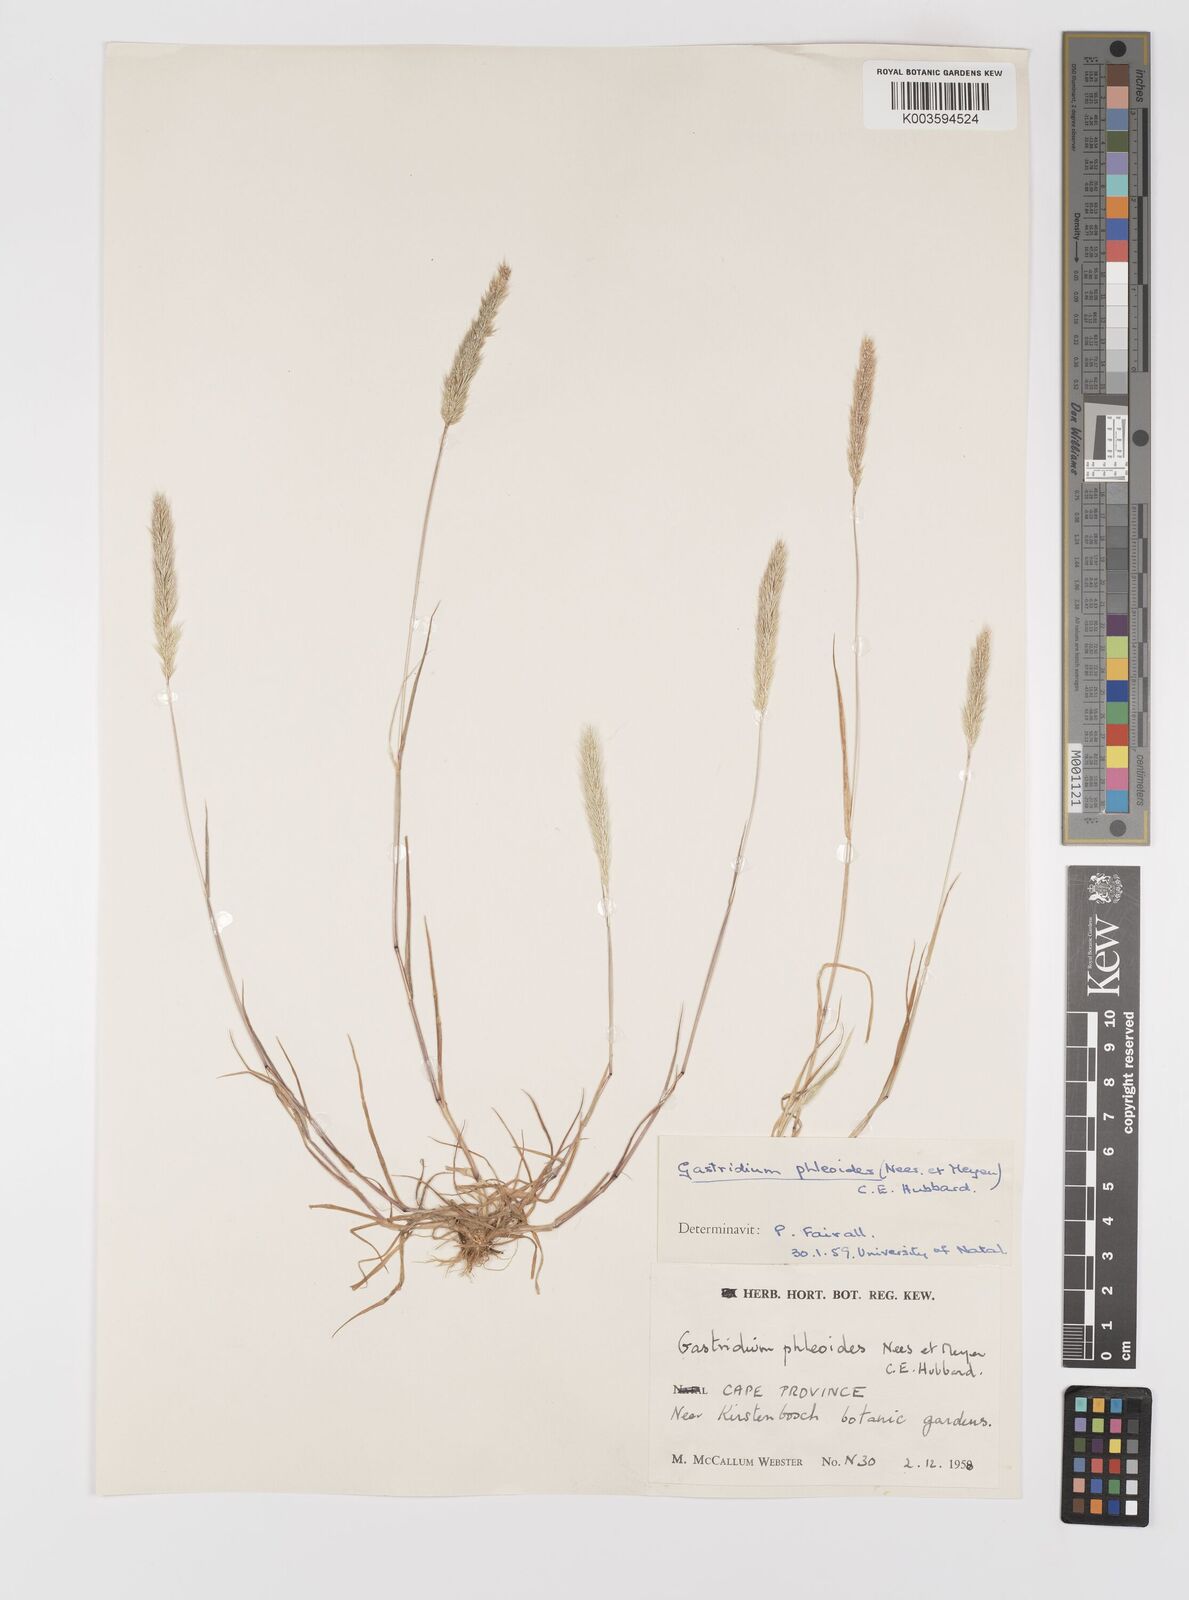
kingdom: Plantae
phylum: Tracheophyta
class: Liliopsida
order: Poales
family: Poaceae
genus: Gastridium
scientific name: Gastridium phleoides
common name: Nit grass
